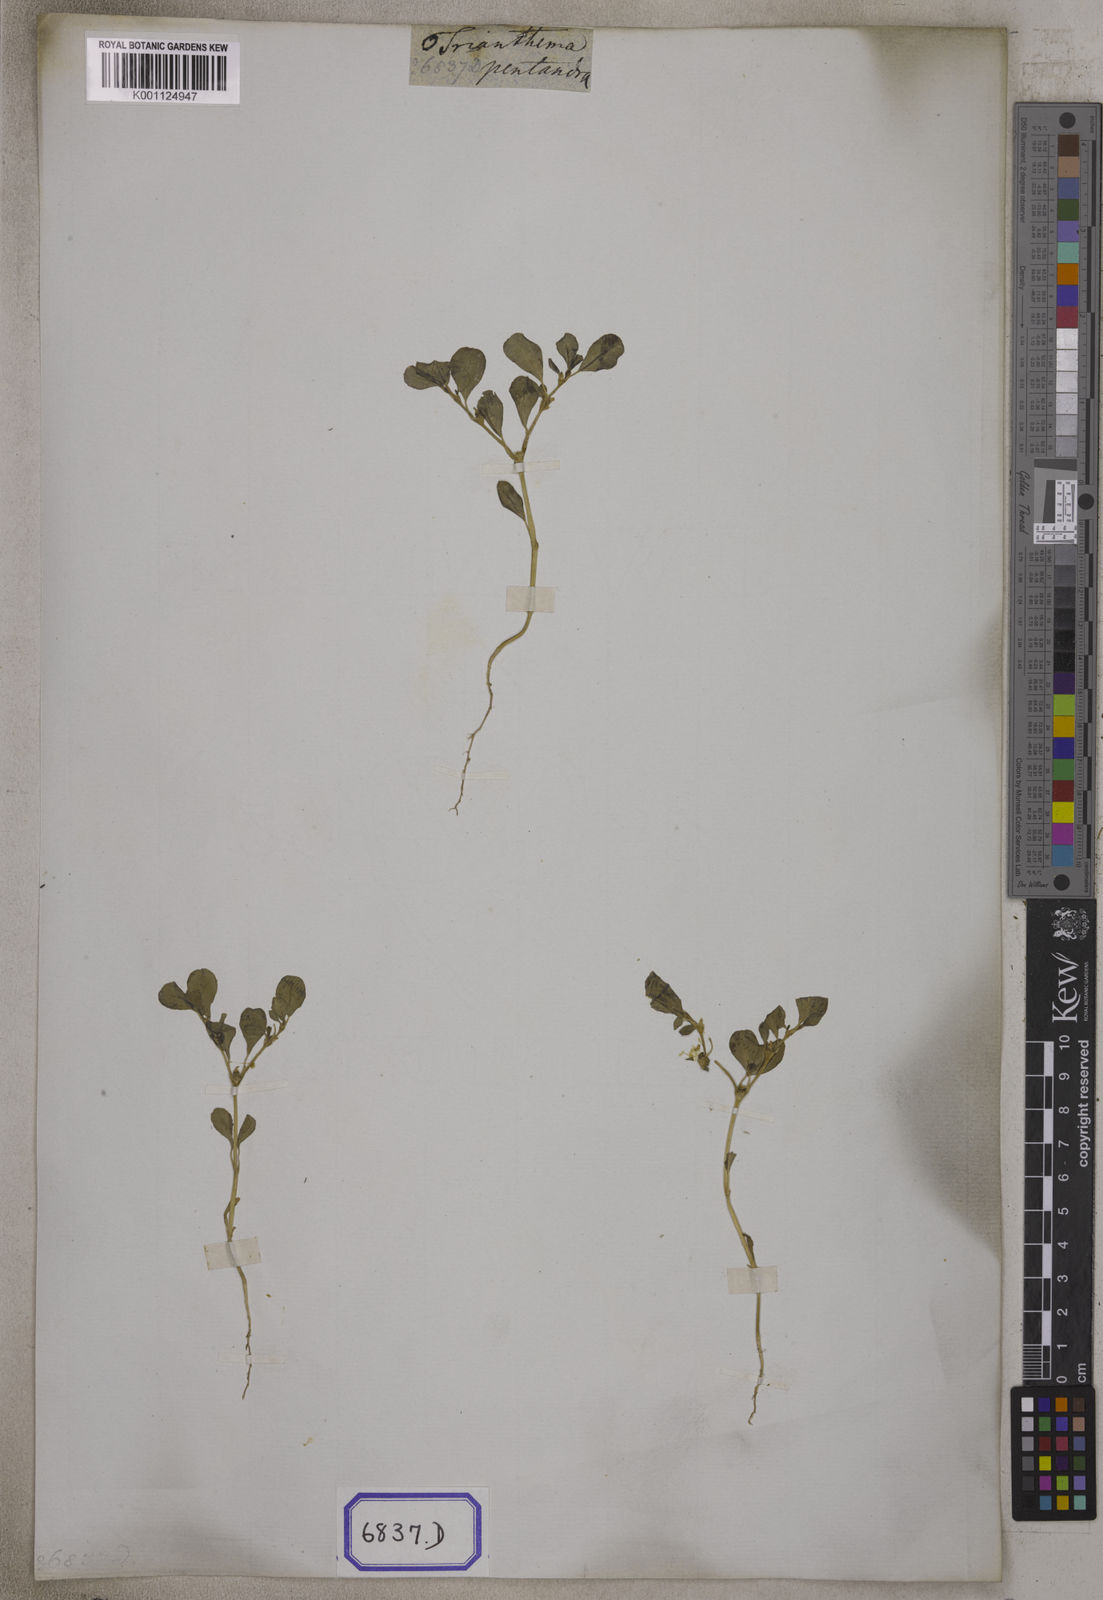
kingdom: Plantae
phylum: Tracheophyta
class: Magnoliopsida
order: Caryophyllales
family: Aizoaceae
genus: Trianthema
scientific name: Trianthema
